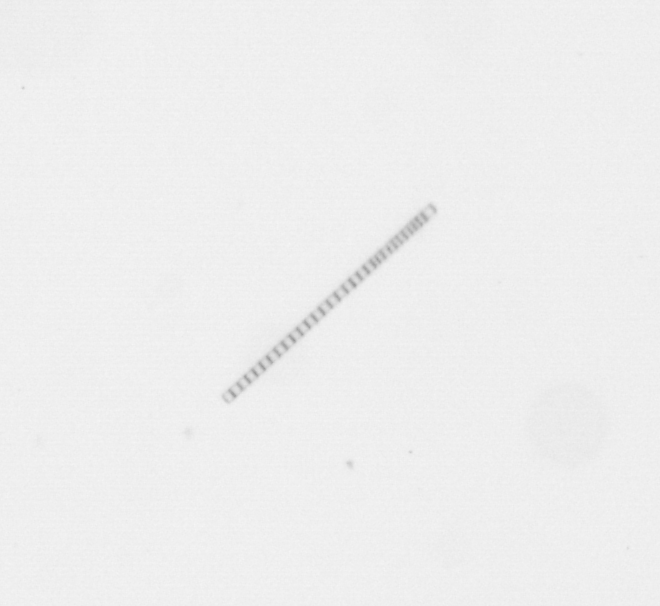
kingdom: Chromista
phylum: Ochrophyta
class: Bacillariophyceae
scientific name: Bacillariophyceae
